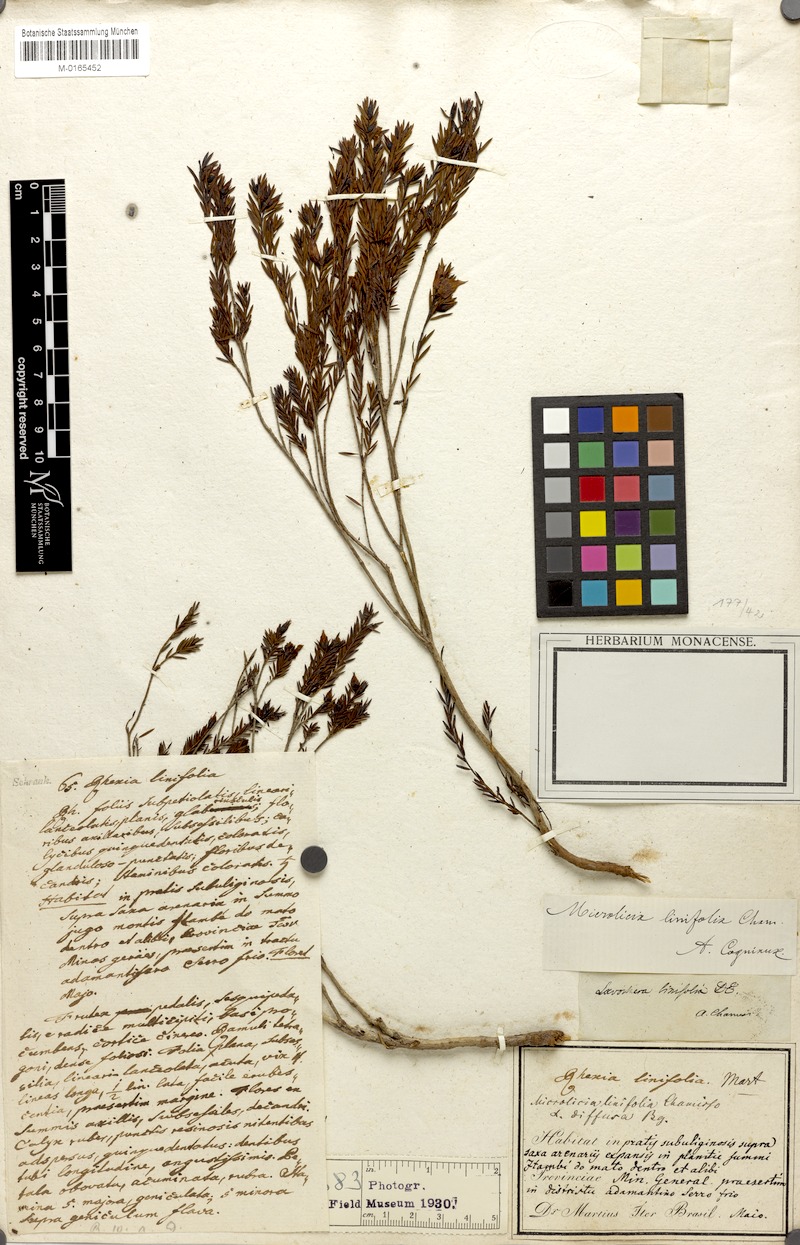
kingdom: Plantae
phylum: Tracheophyta
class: Magnoliopsida
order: Myrtales
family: Melastomataceae
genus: Microlicia
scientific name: Microlicia linifolia
